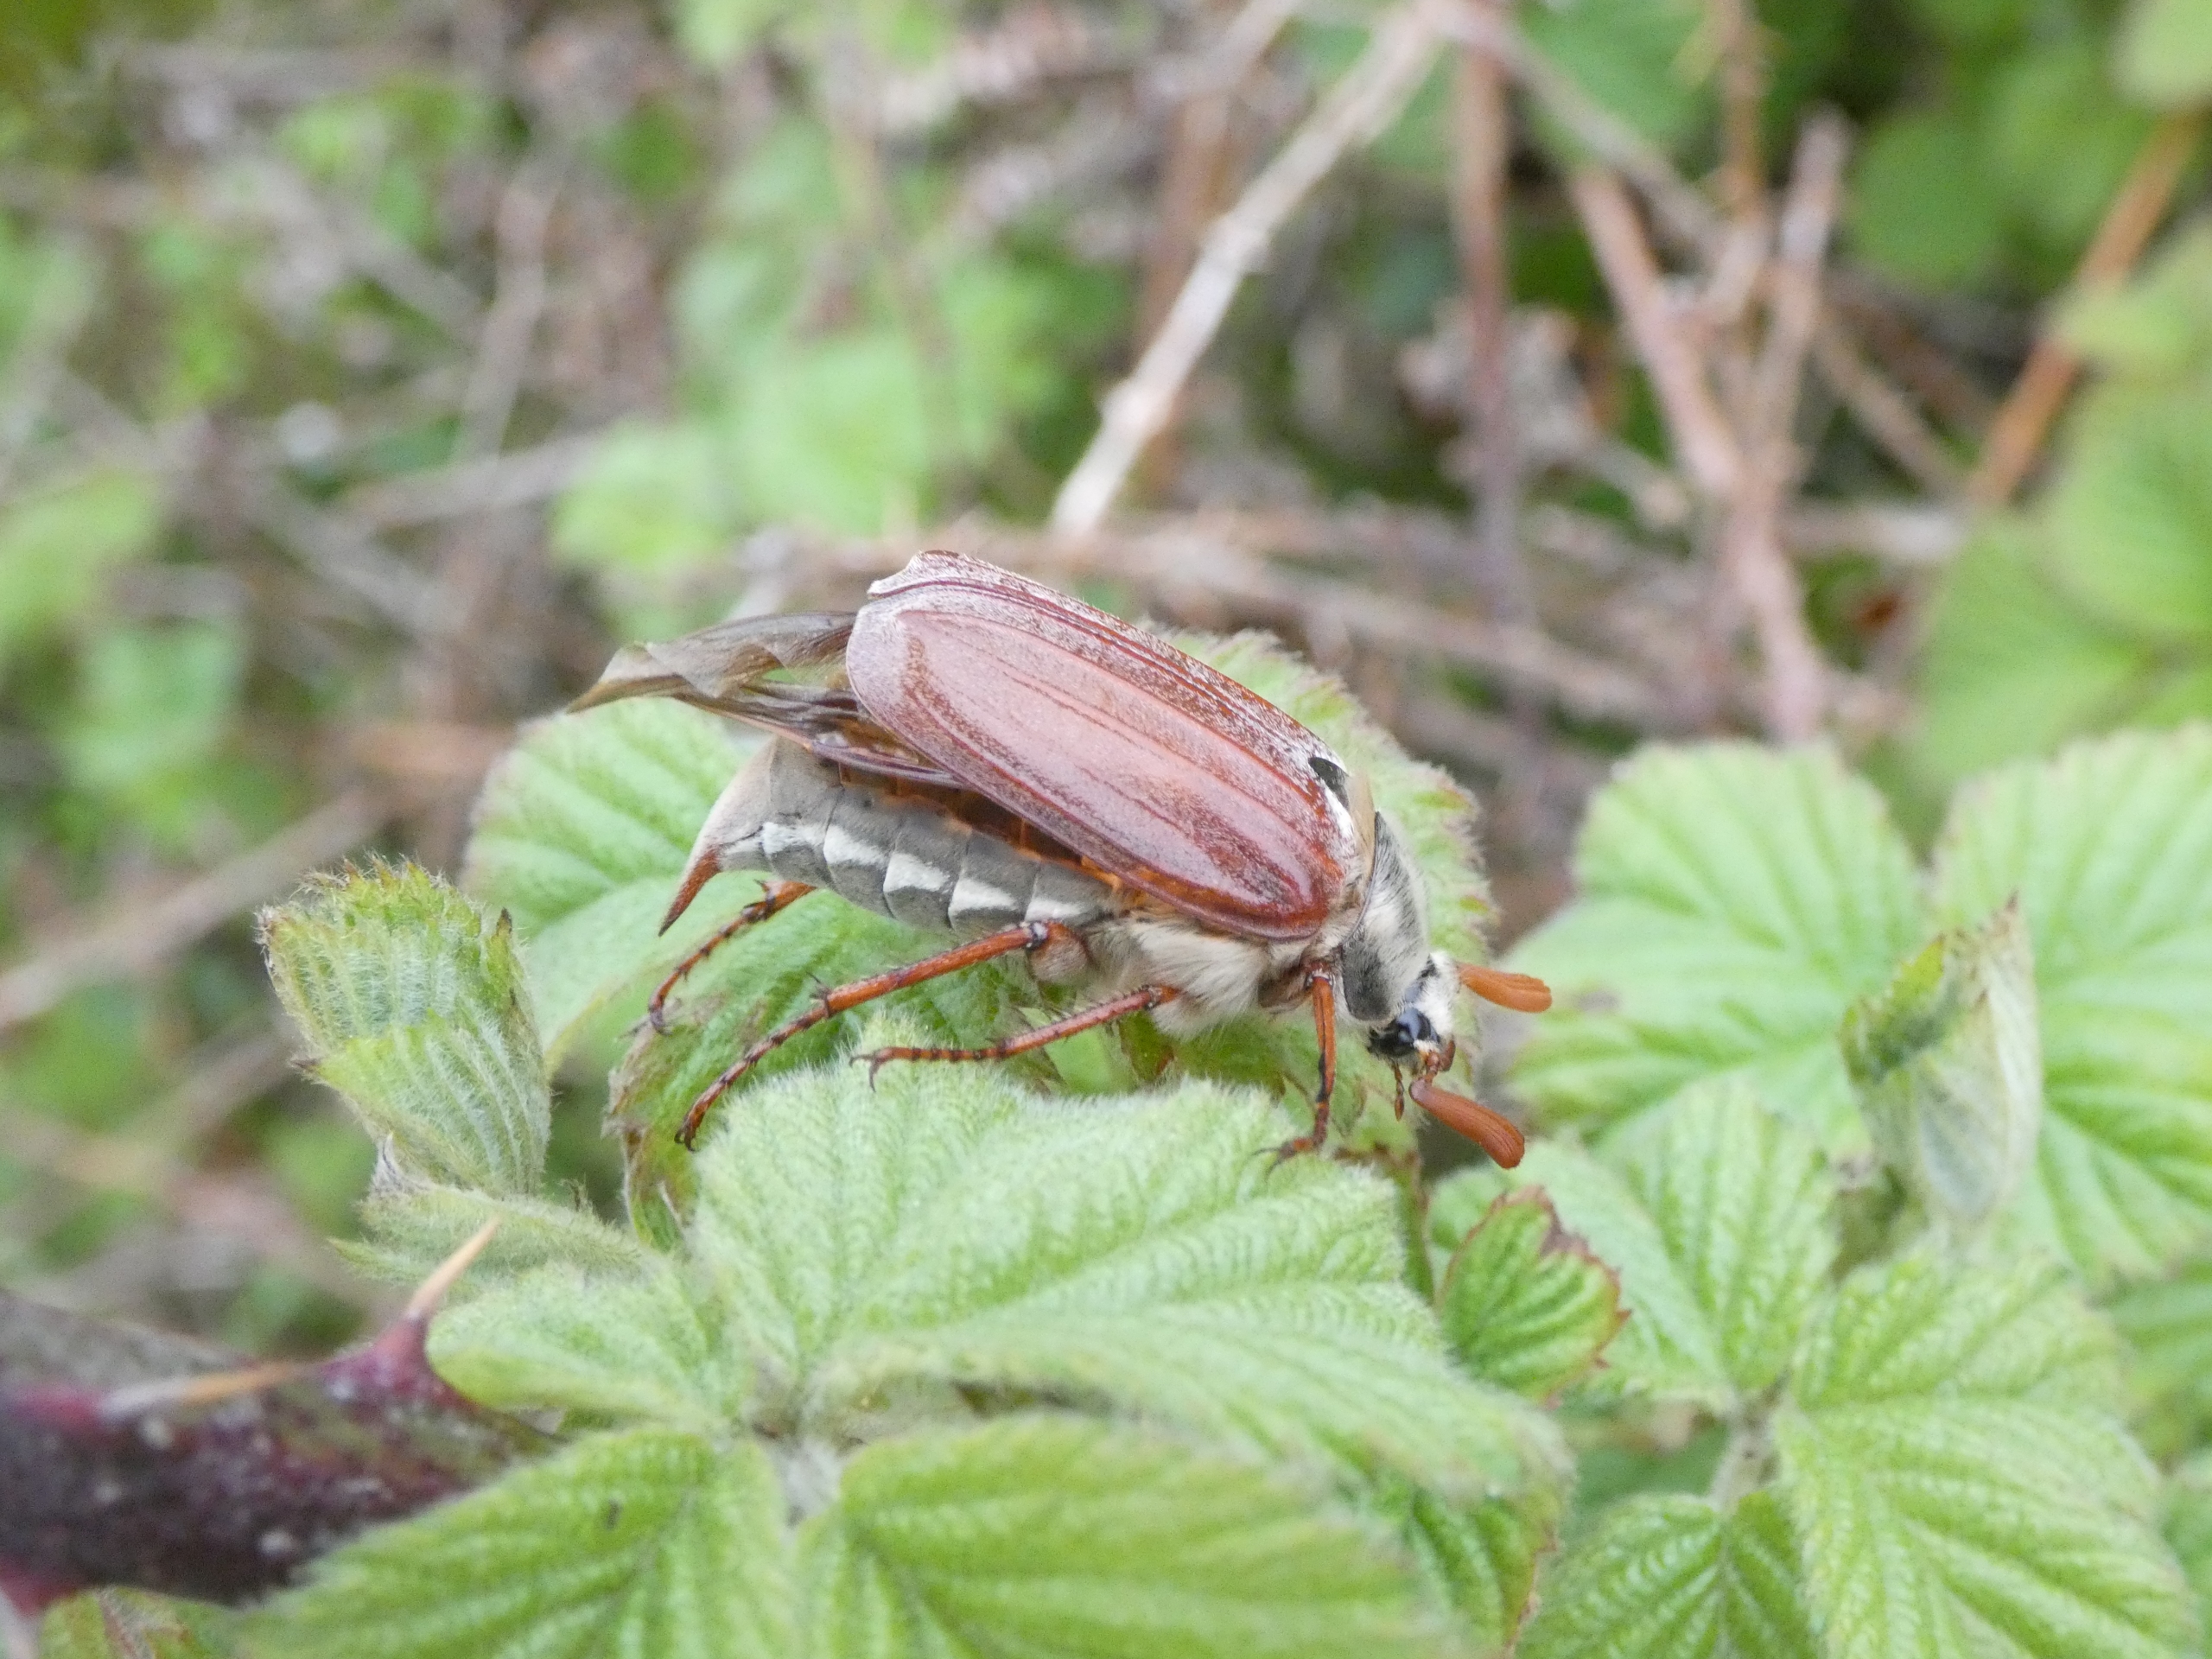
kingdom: Animalia
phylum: Arthropoda
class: Insecta
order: Coleoptera
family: Scarabaeidae
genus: Melolontha
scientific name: Melolontha melolontha
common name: Almindelig oldenborre
